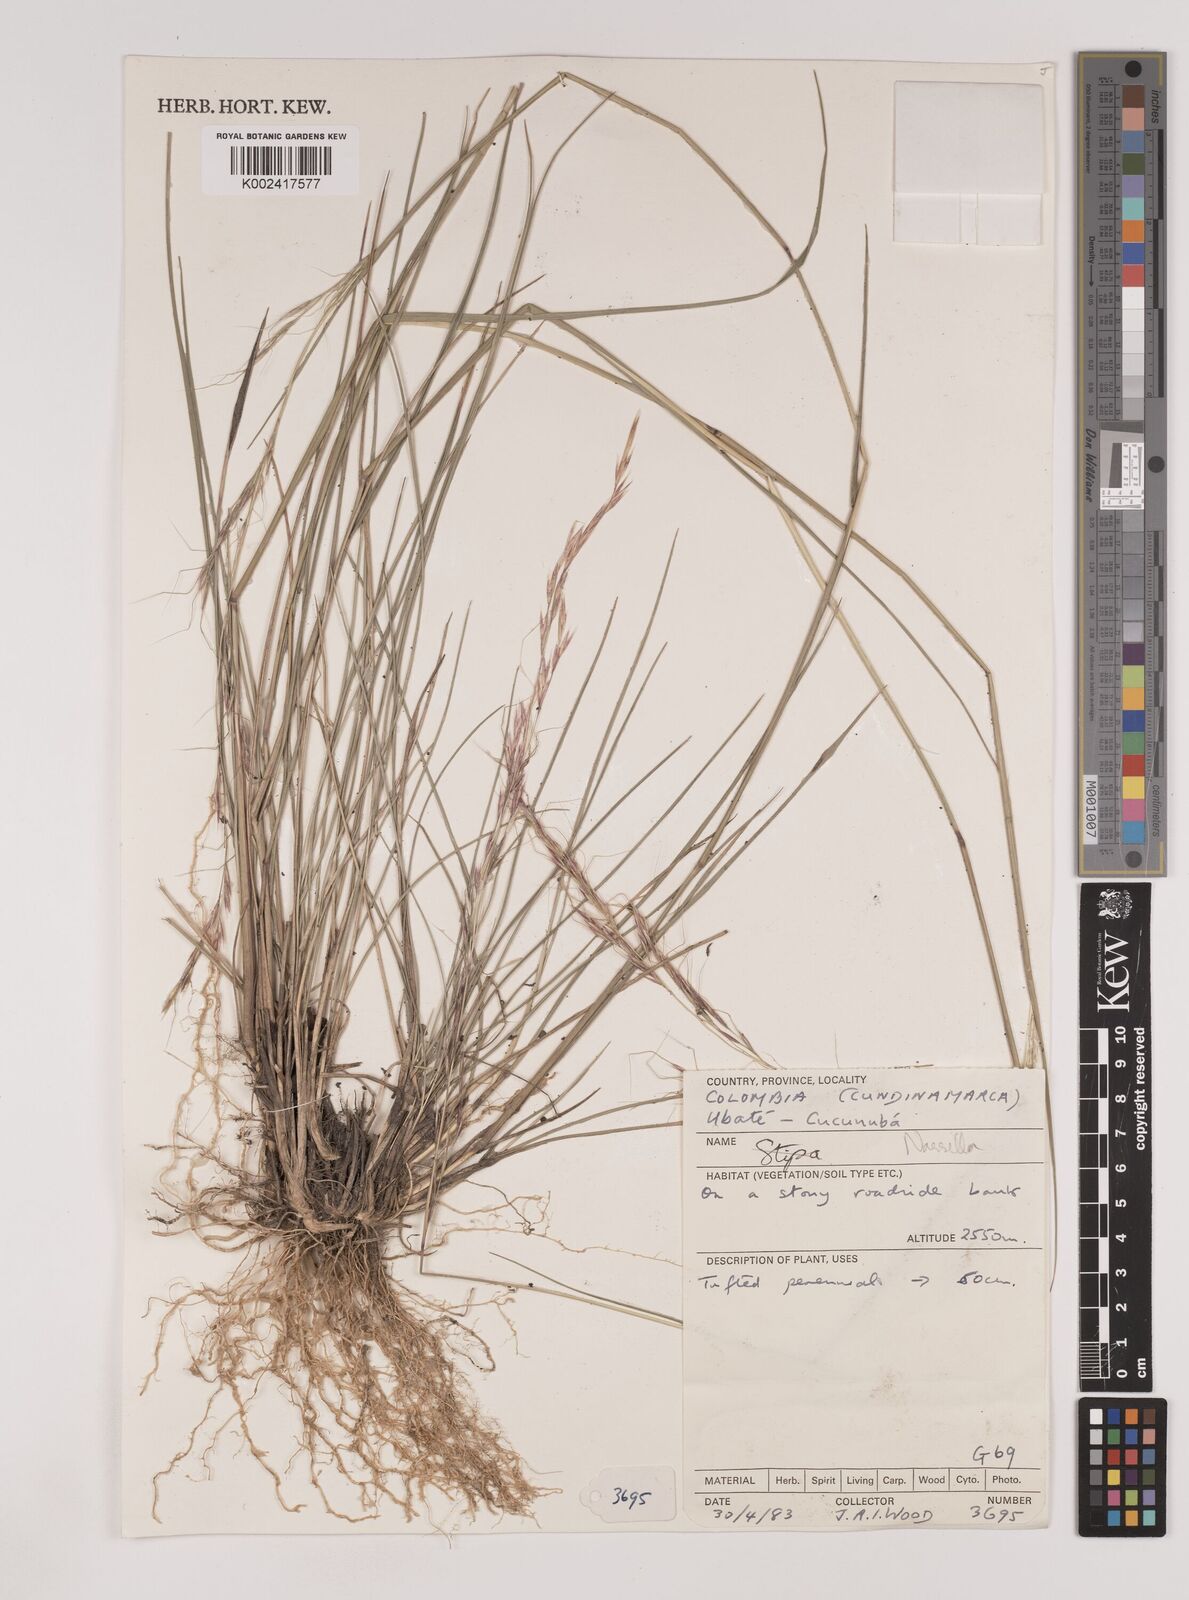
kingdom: Plantae
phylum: Tracheophyta
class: Liliopsida
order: Poales
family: Poaceae
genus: Nassella
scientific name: Nassella
